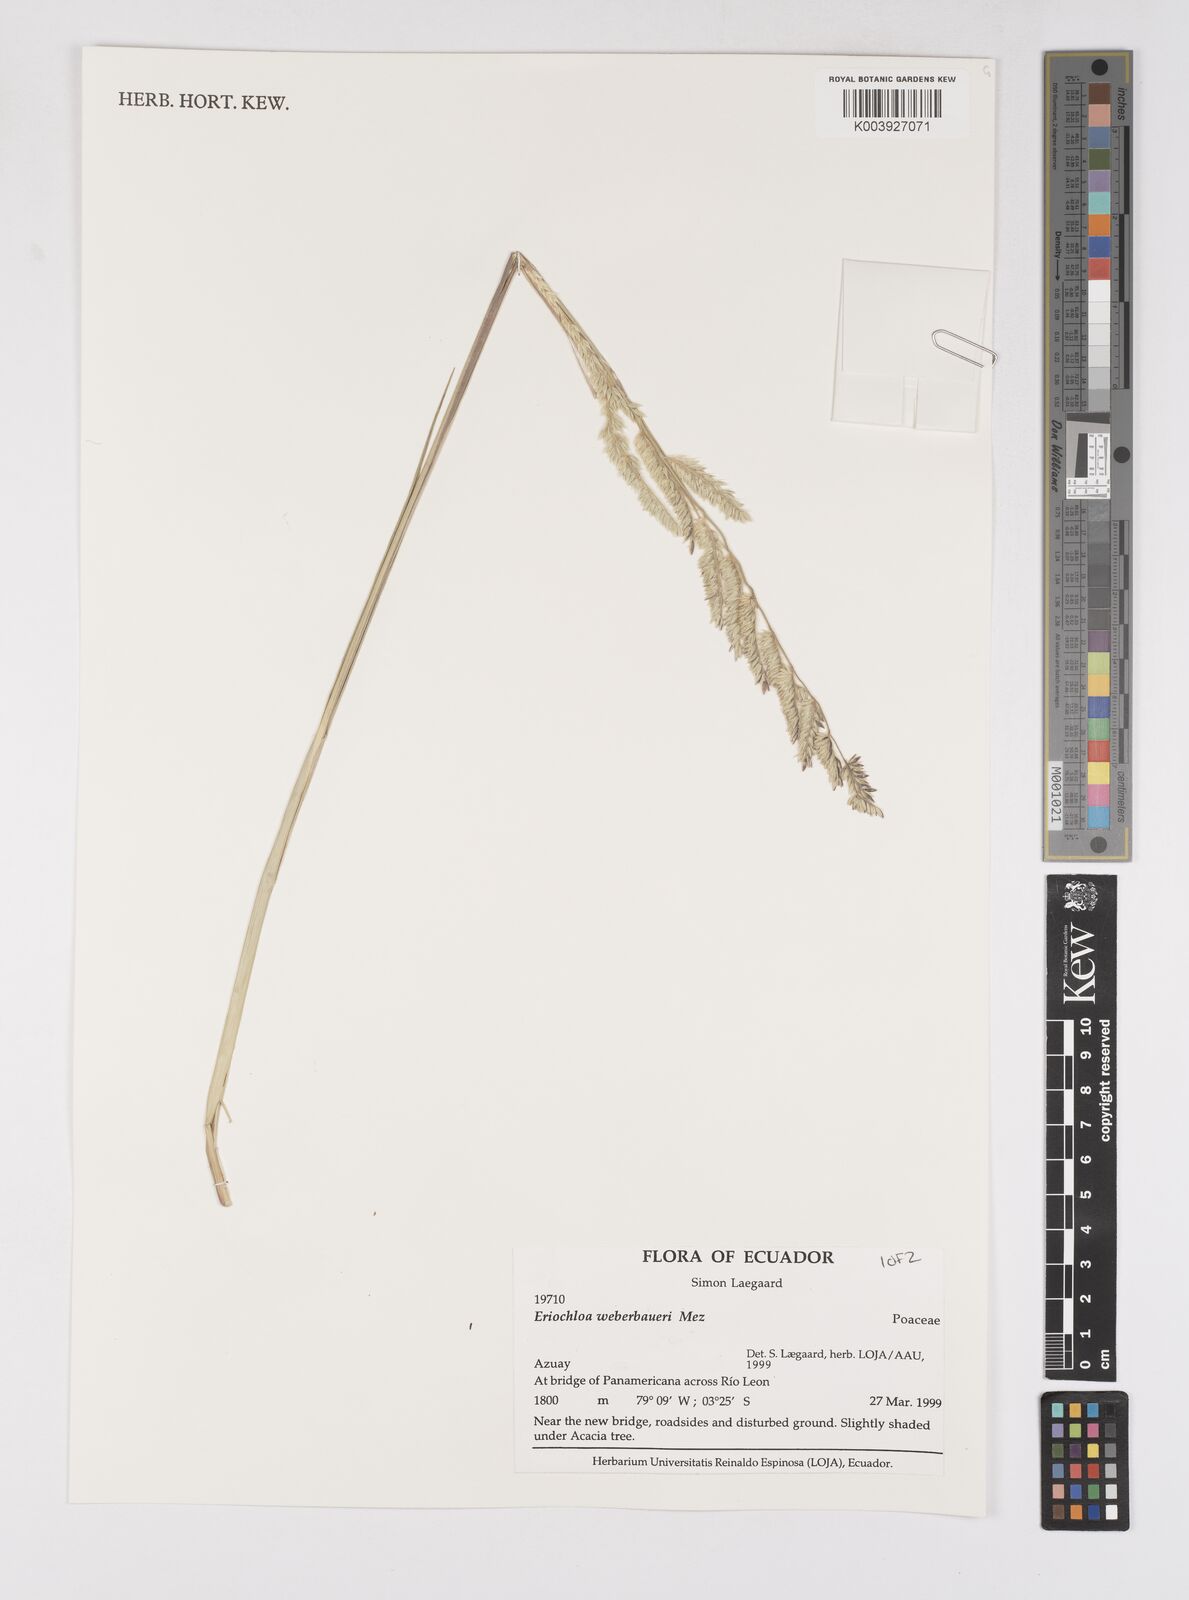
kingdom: Plantae
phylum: Tracheophyta
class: Liliopsida
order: Poales
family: Poaceae
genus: Eriochloa
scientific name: Eriochloa weberbaueri
